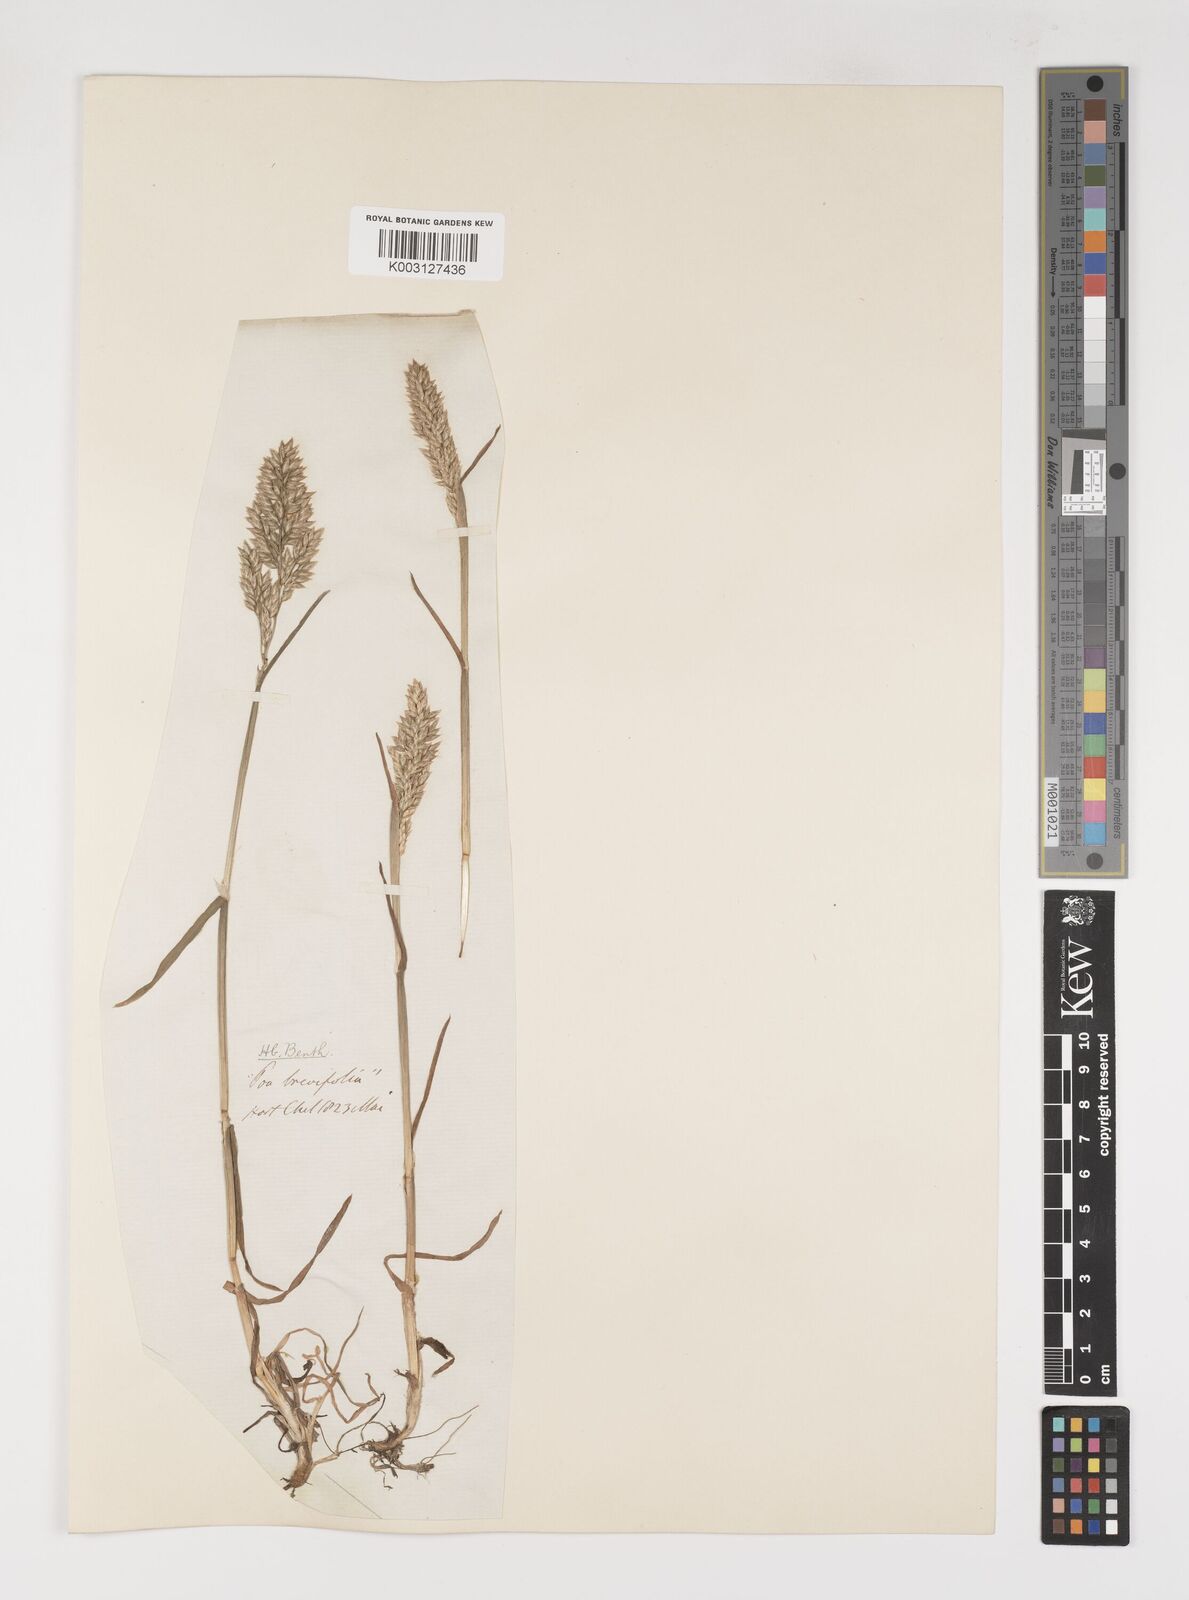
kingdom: Plantae
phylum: Tracheophyta
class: Liliopsida
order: Poales
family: Poaceae
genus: Poa
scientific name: Poa alpina
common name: Alpine bluegrass
